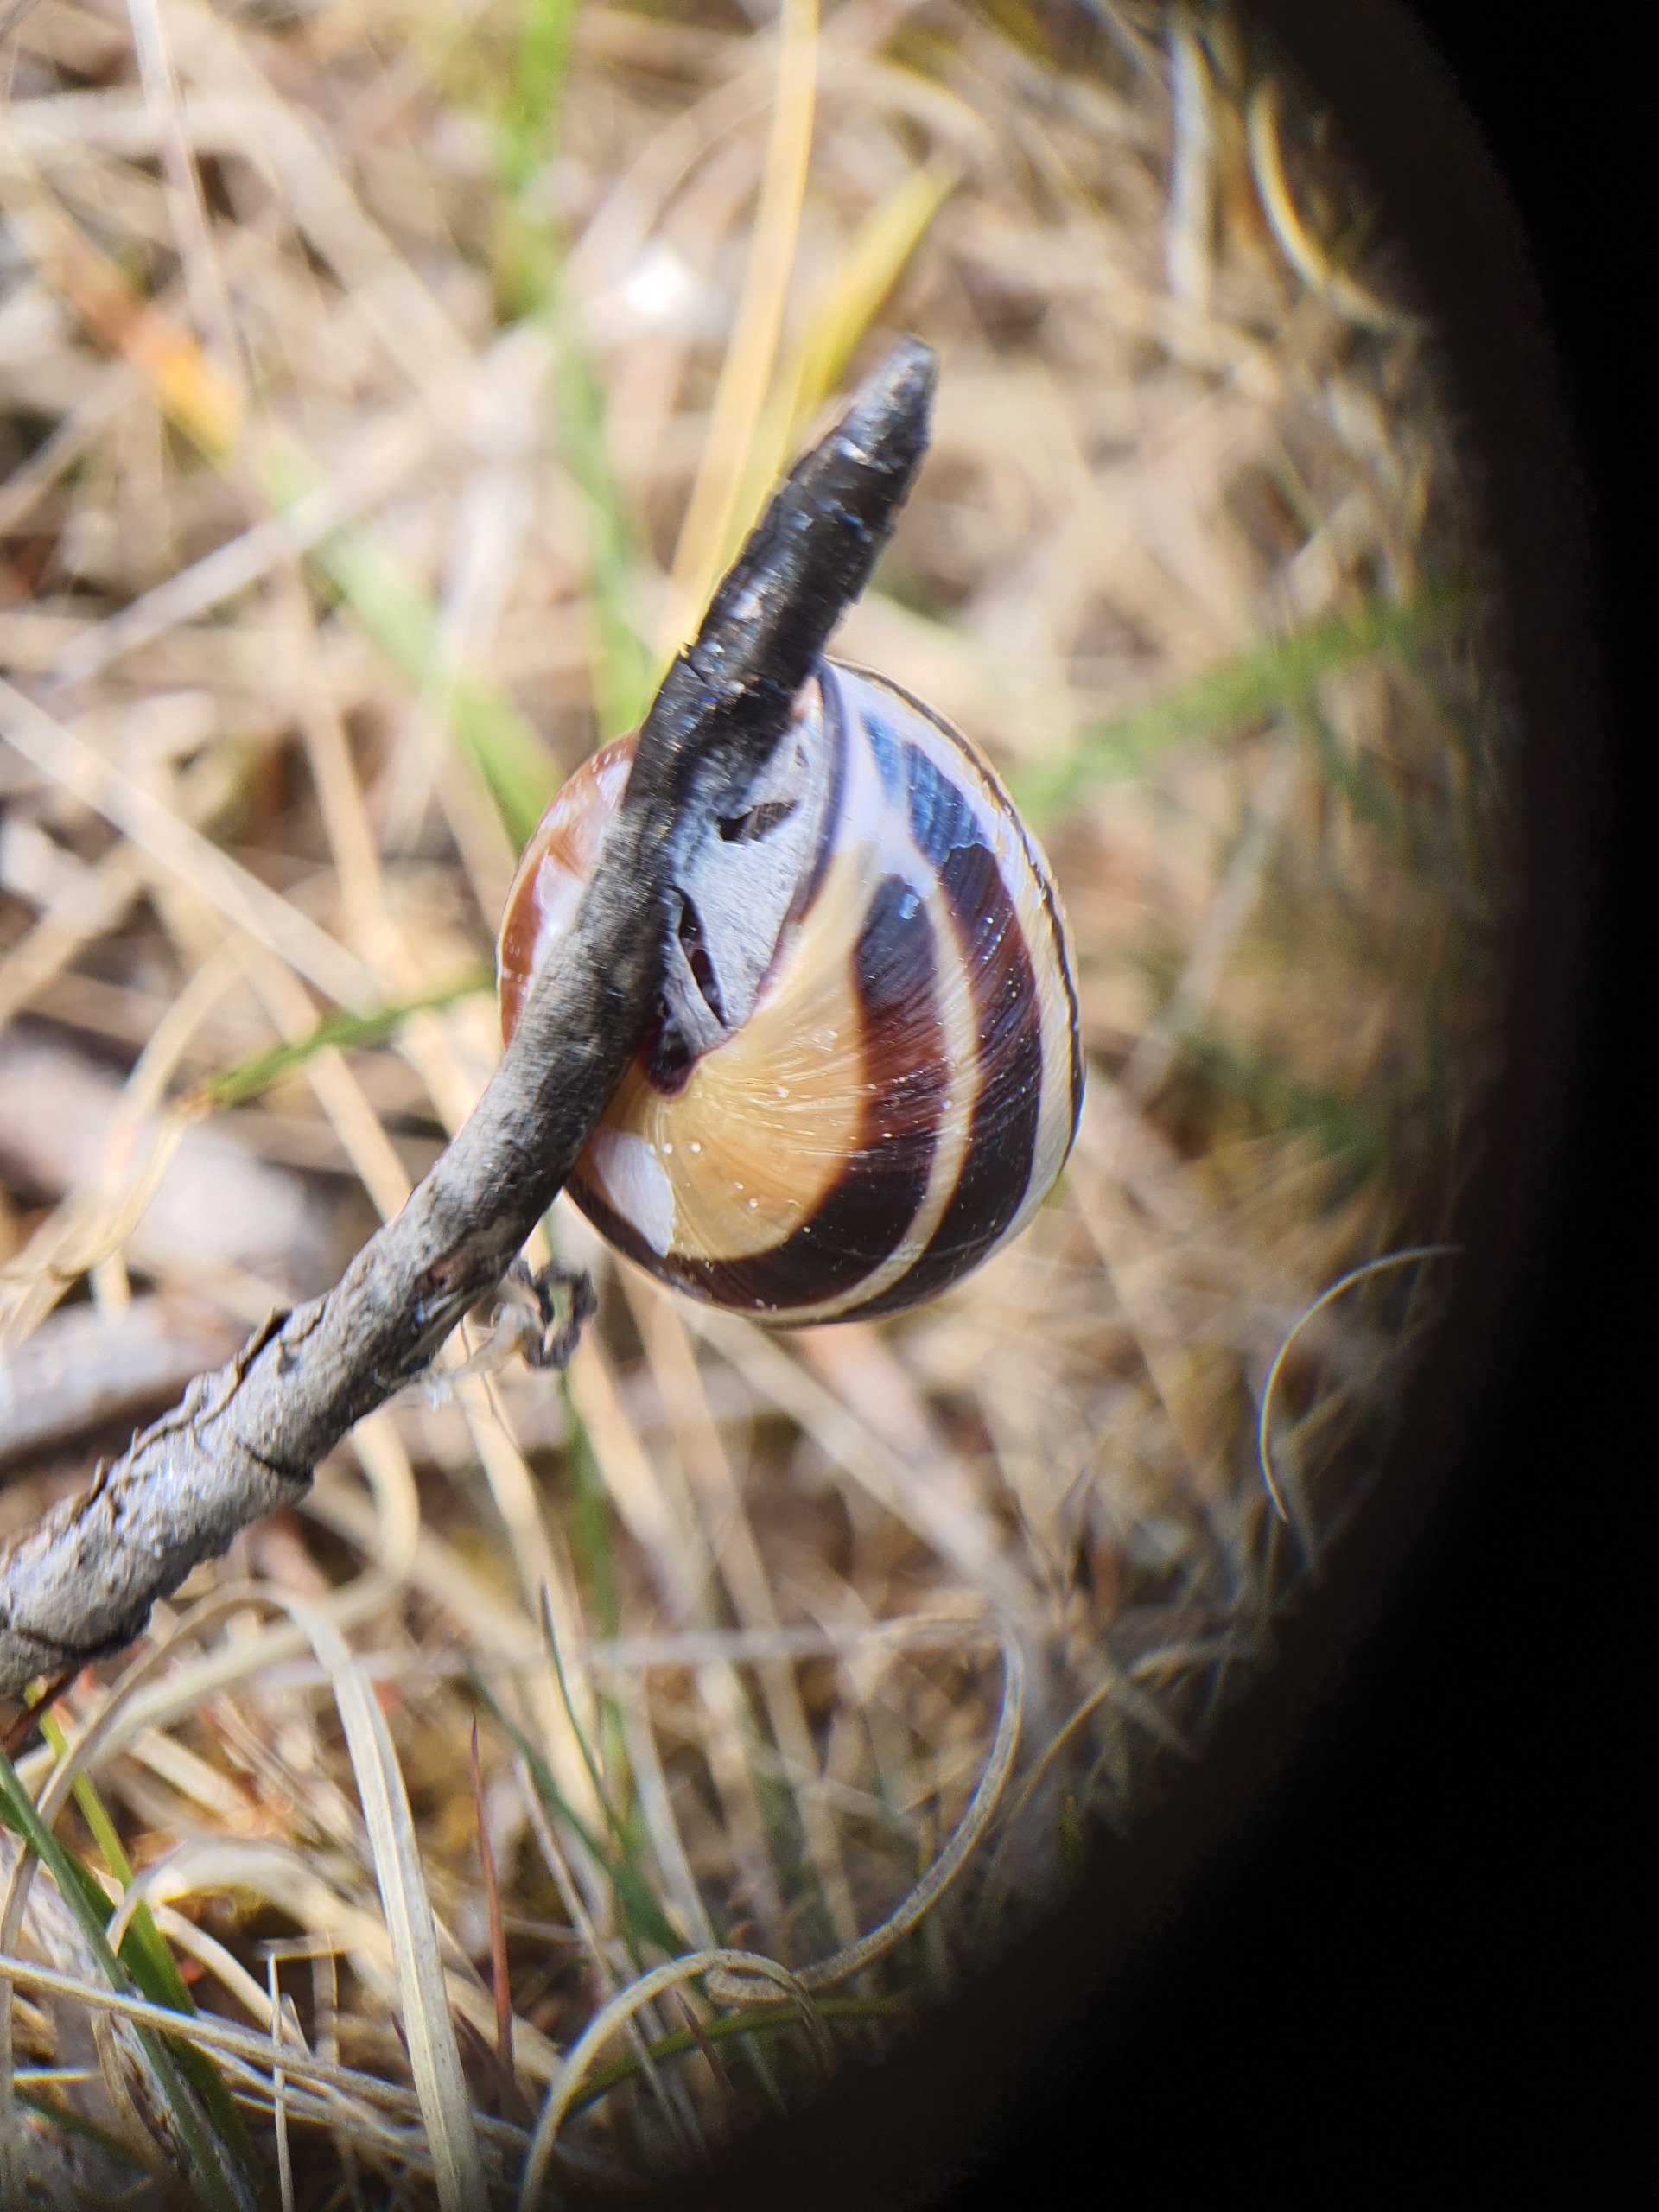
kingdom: Animalia
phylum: Mollusca
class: Gastropoda
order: Stylommatophora
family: Helicidae
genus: Cepaea
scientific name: Cepaea nemoralis
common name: Lundsnegl
